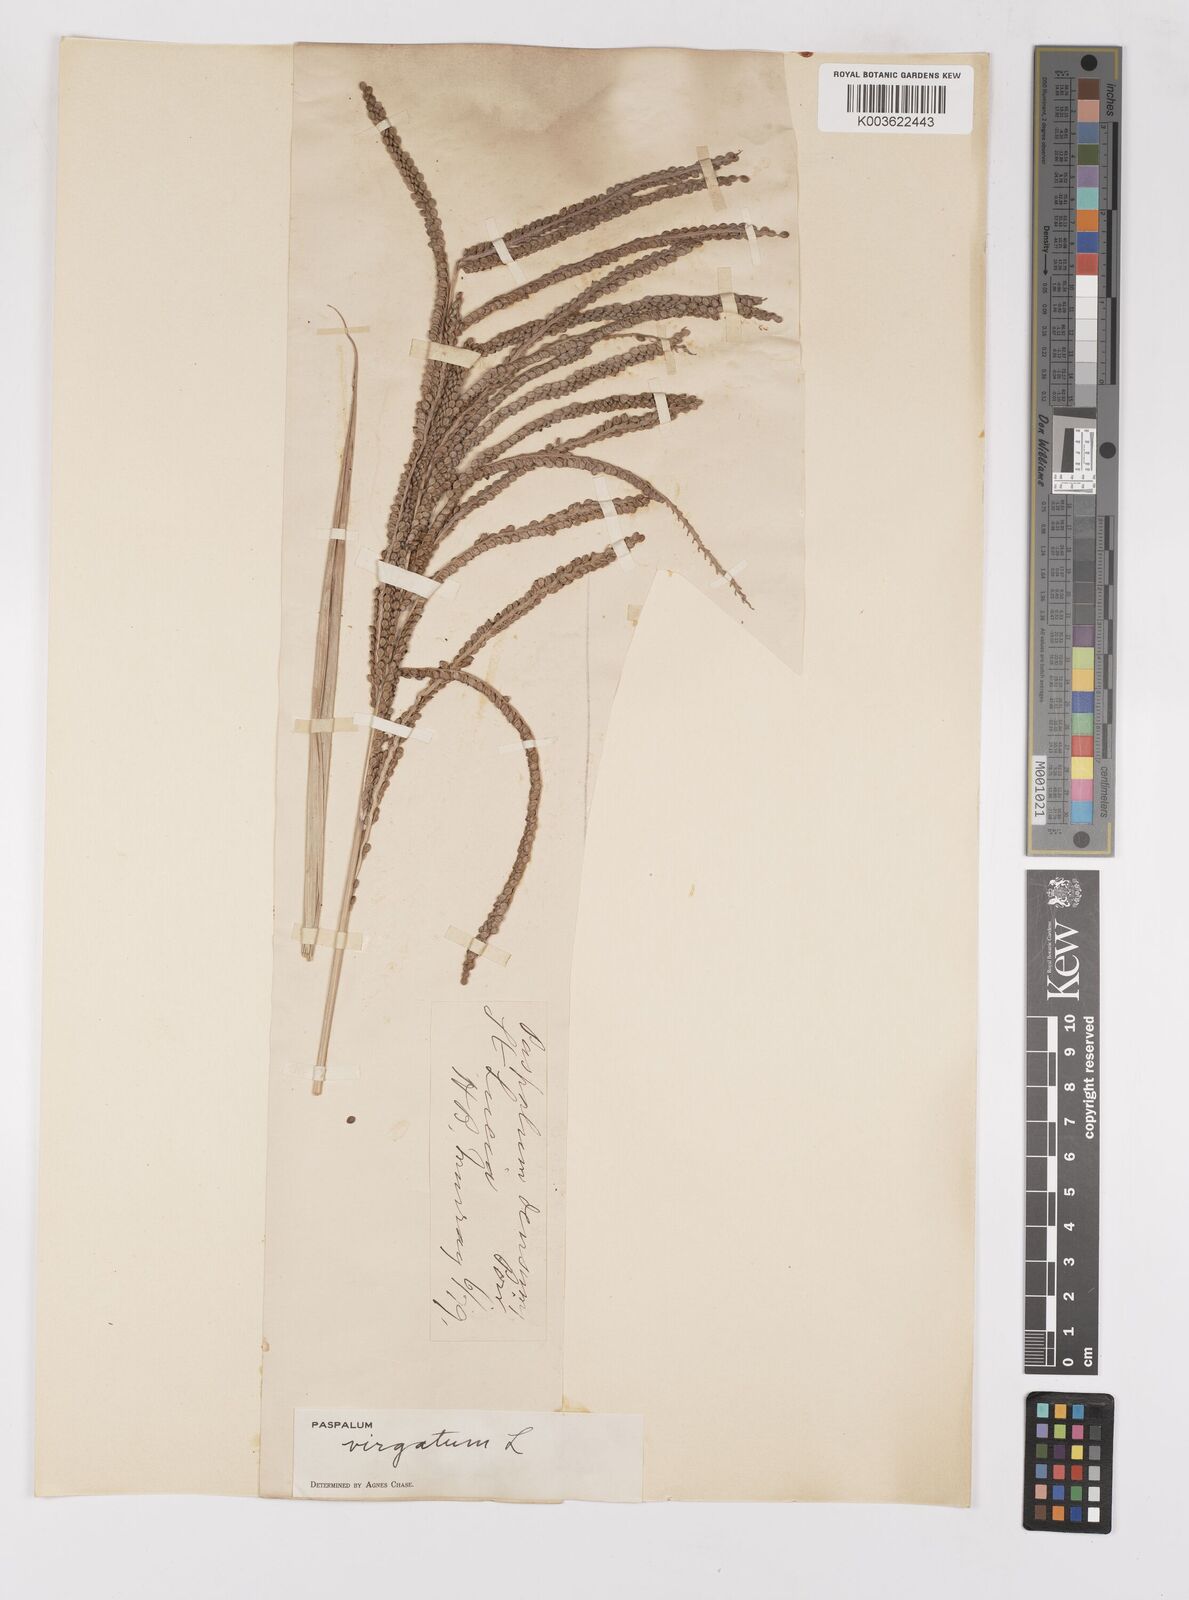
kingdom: Plantae
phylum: Tracheophyta
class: Liliopsida
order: Poales
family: Poaceae
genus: Paspalum
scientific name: Paspalum virgatum
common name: Talquezal
